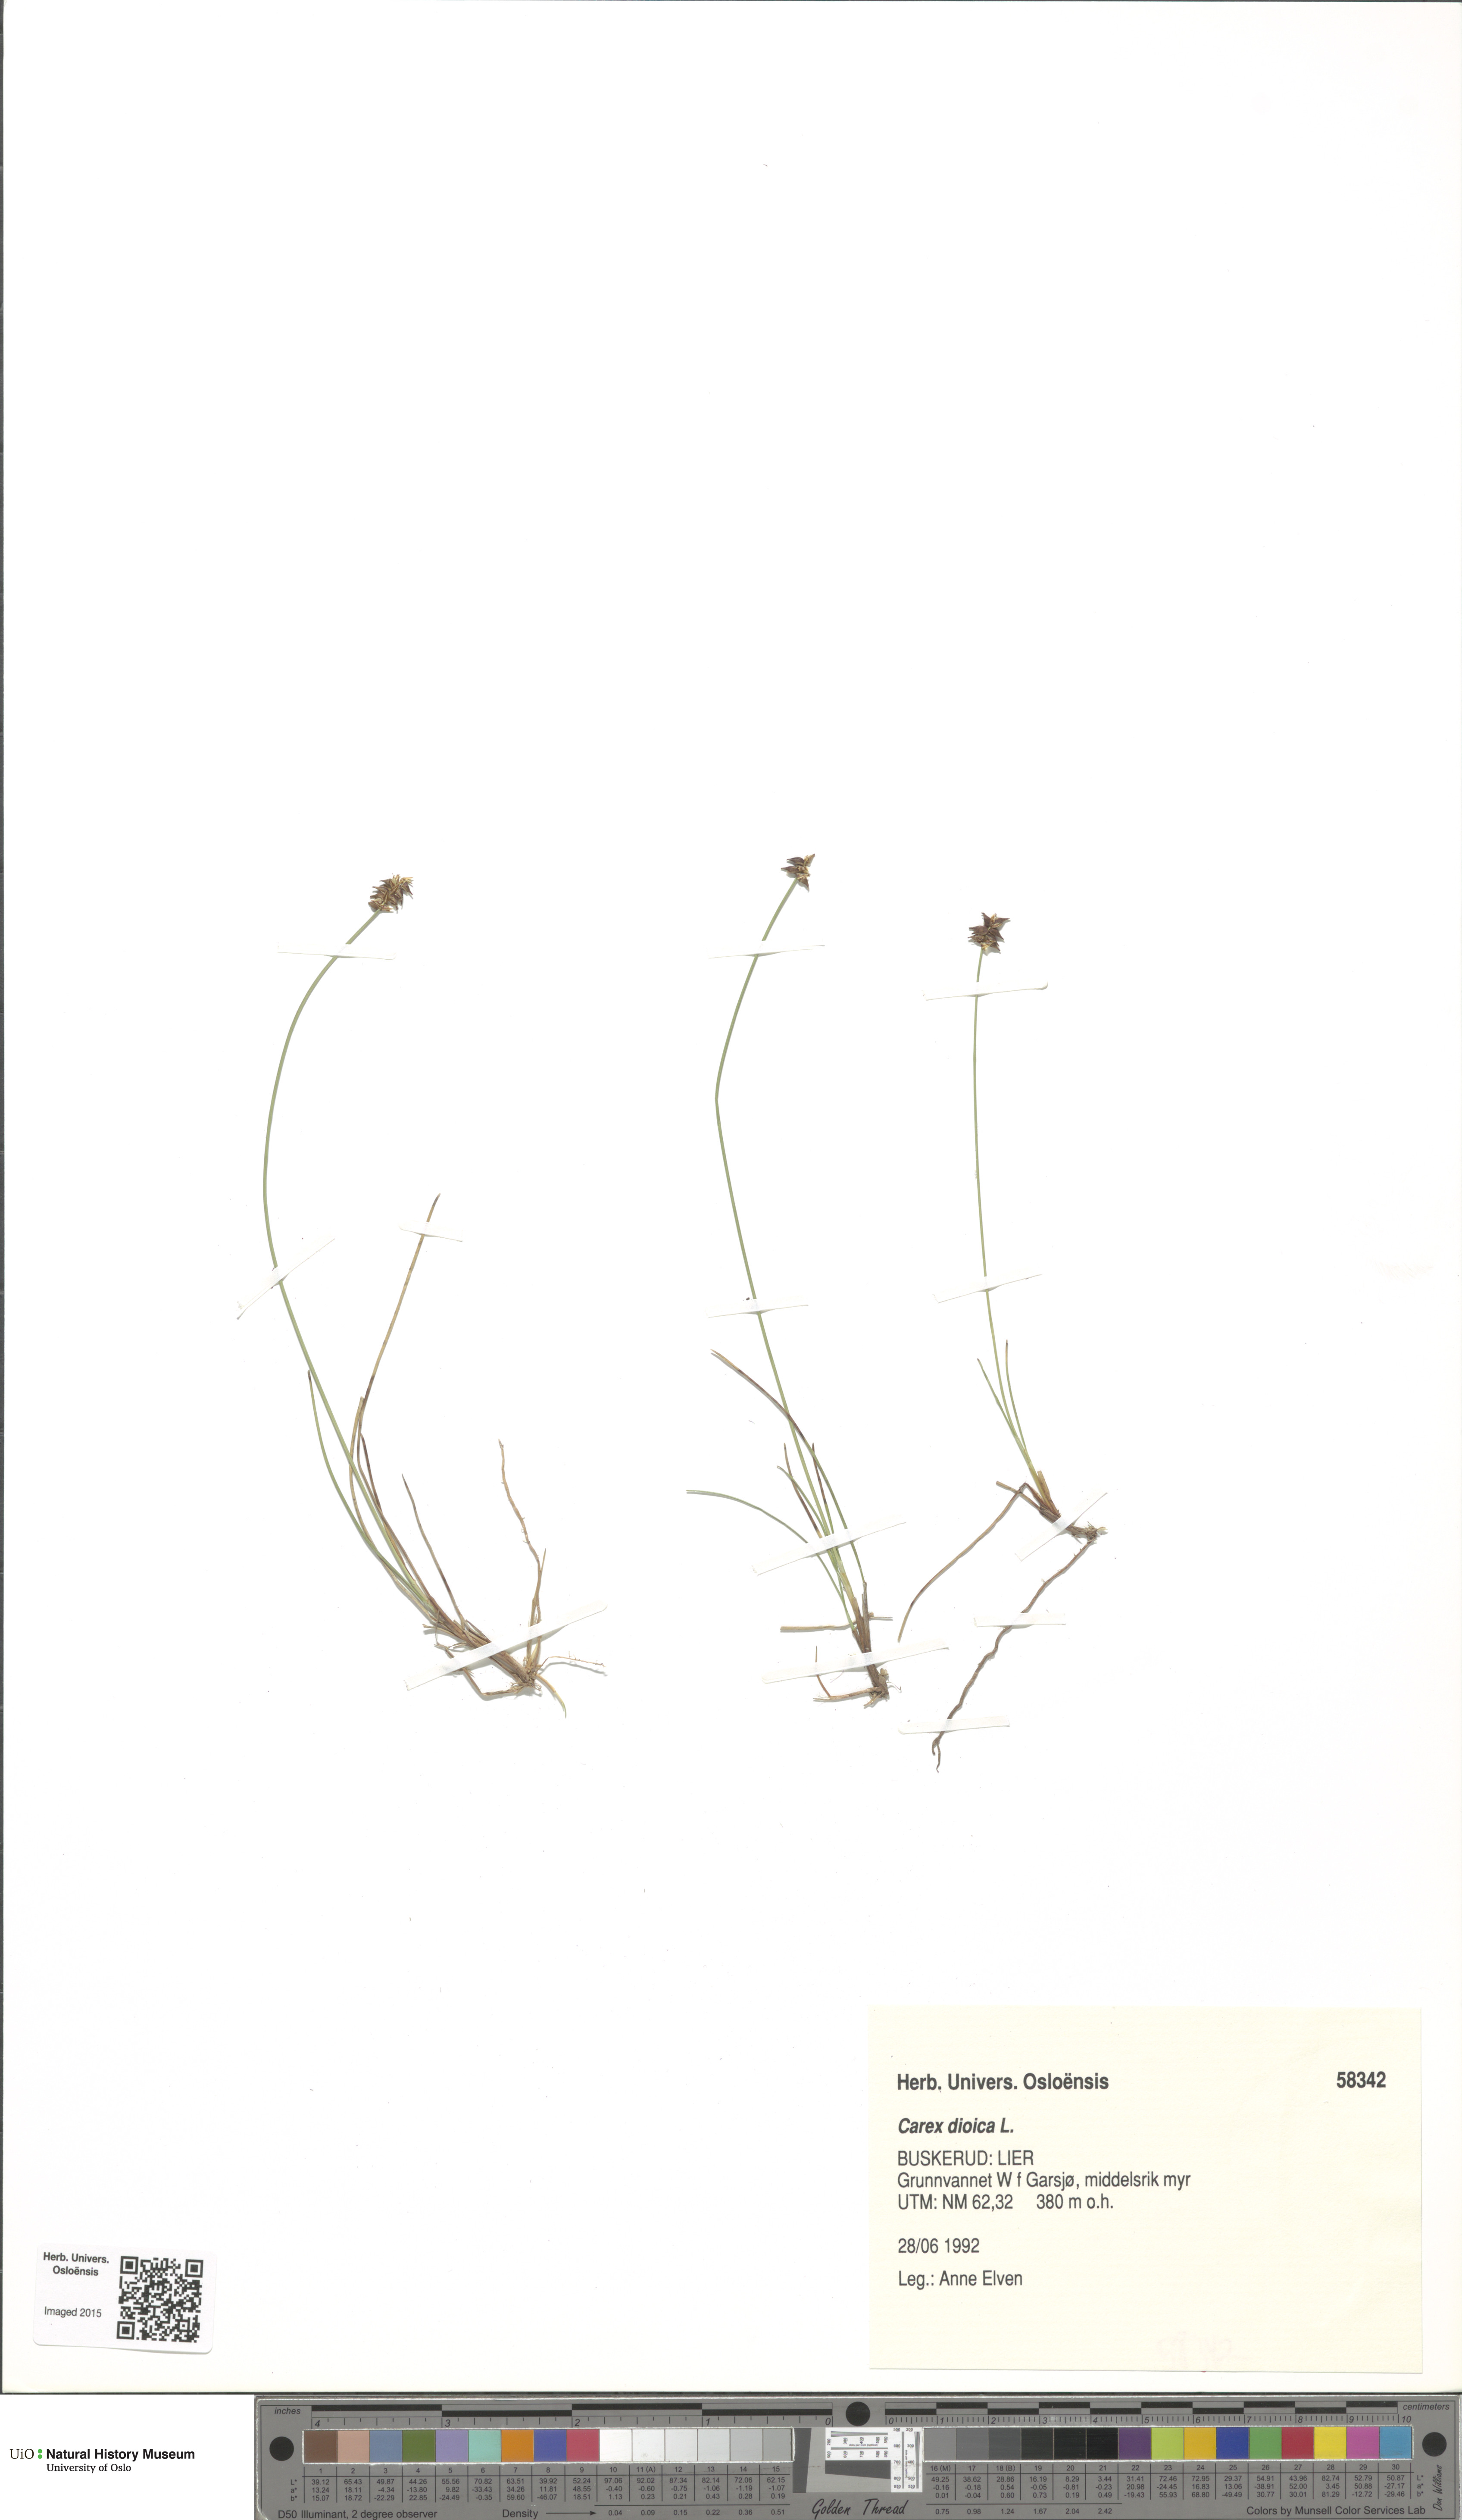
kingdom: Plantae
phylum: Tracheophyta
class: Liliopsida
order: Poales
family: Cyperaceae
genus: Carex
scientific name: Carex dioica
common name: Dioecious sedge
